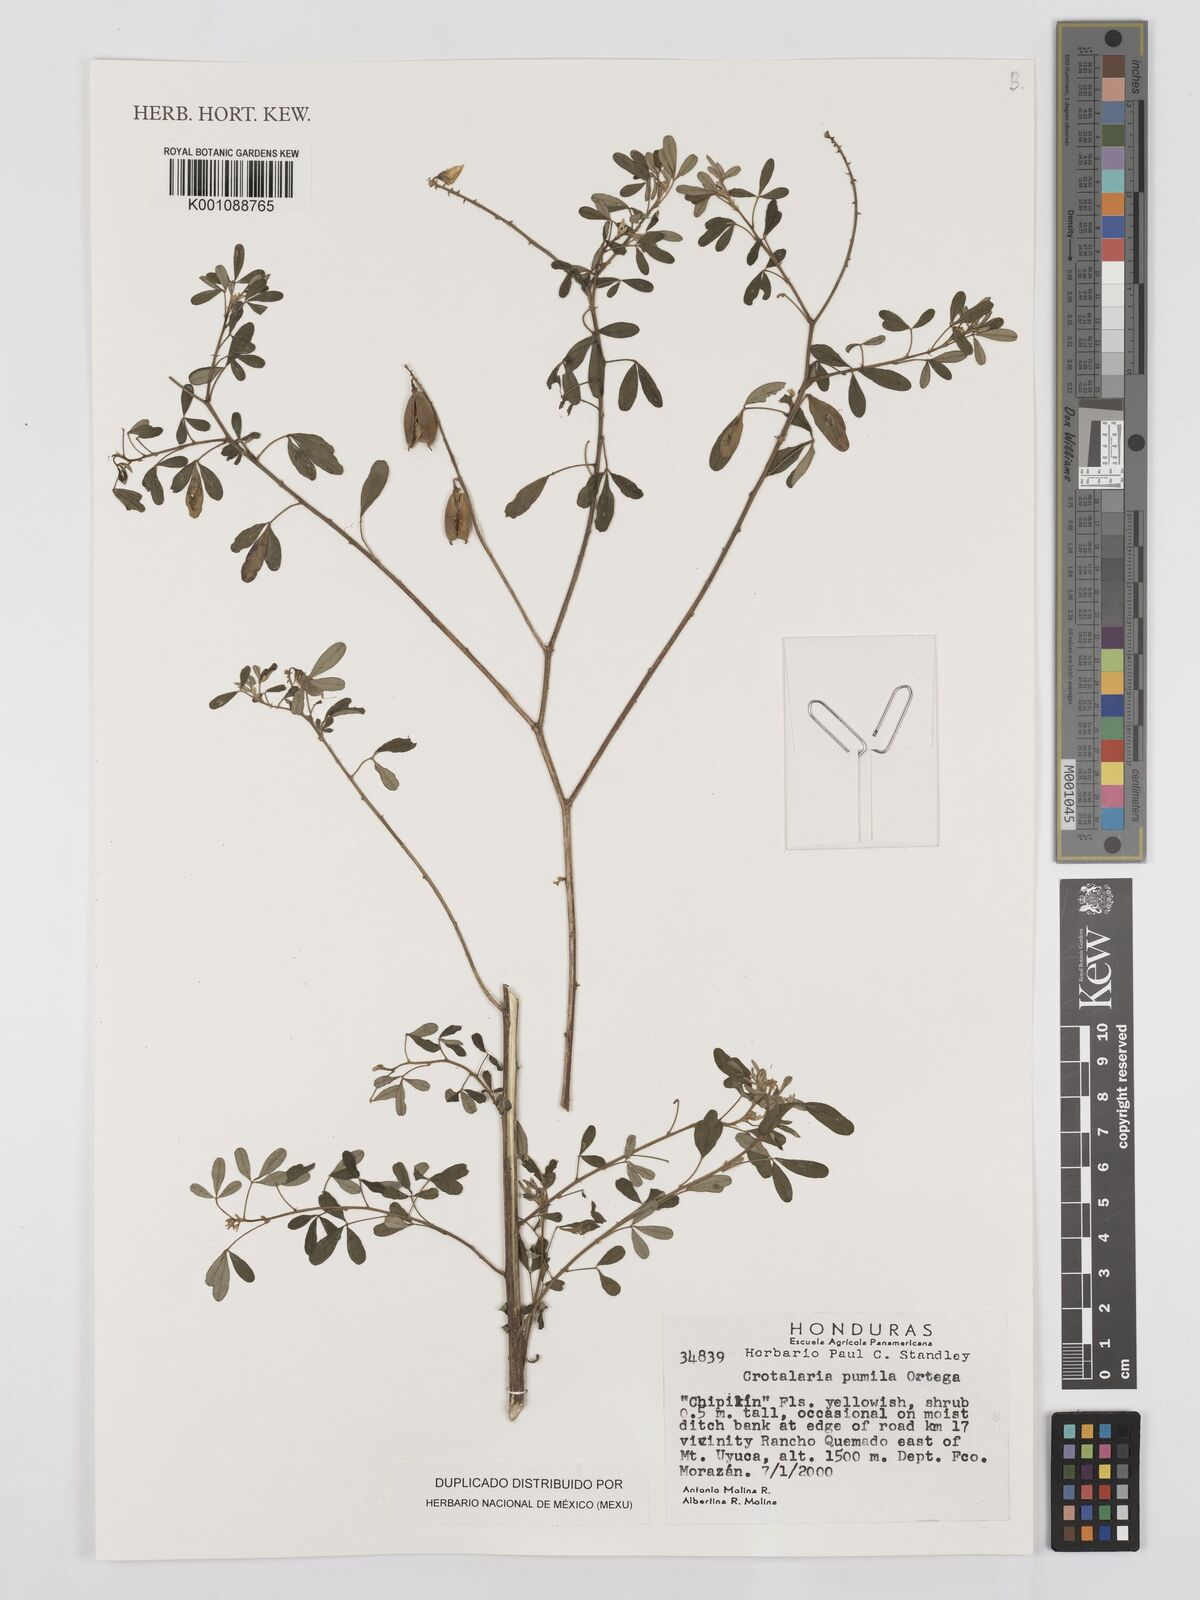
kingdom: Plantae
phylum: Tracheophyta
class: Magnoliopsida
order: Fabales
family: Fabaceae
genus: Crotalaria
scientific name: Crotalaria retusa
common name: Rattleweed
